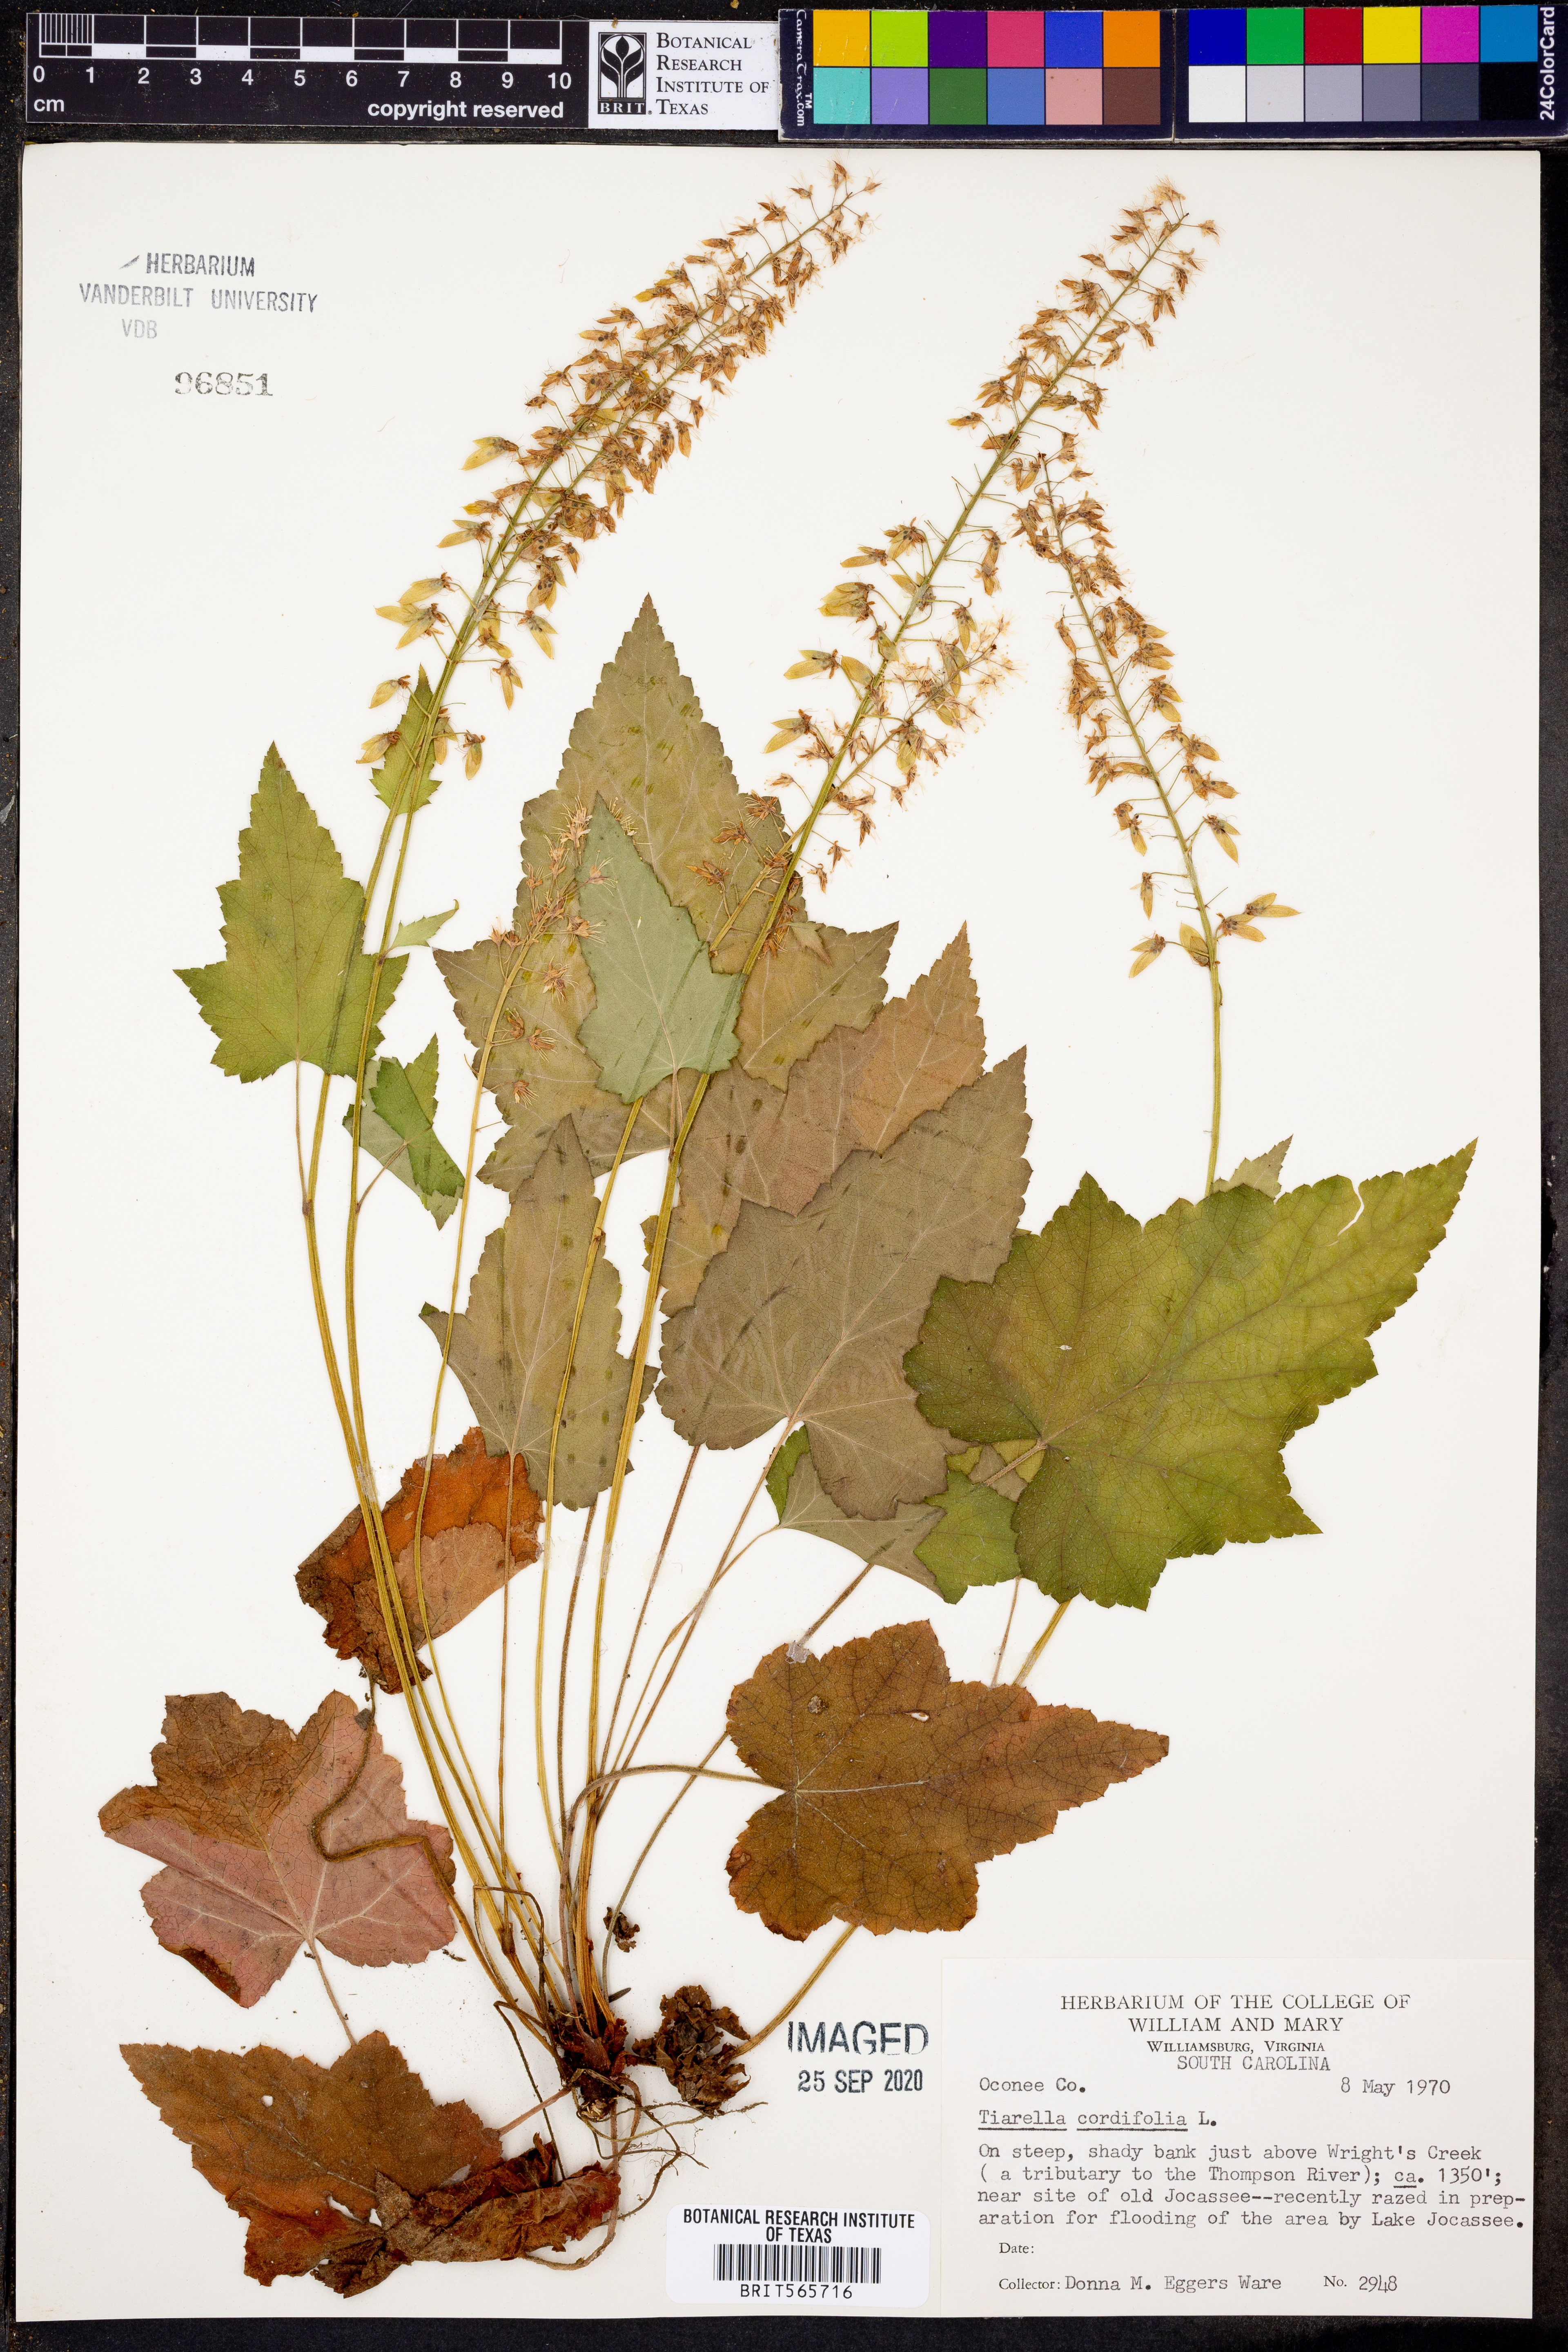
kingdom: Plantae
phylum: Tracheophyta
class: Magnoliopsida
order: Saxifragales
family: Saxifragaceae
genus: Tiarella
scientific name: Tiarella cordifolia
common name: Foamflower
